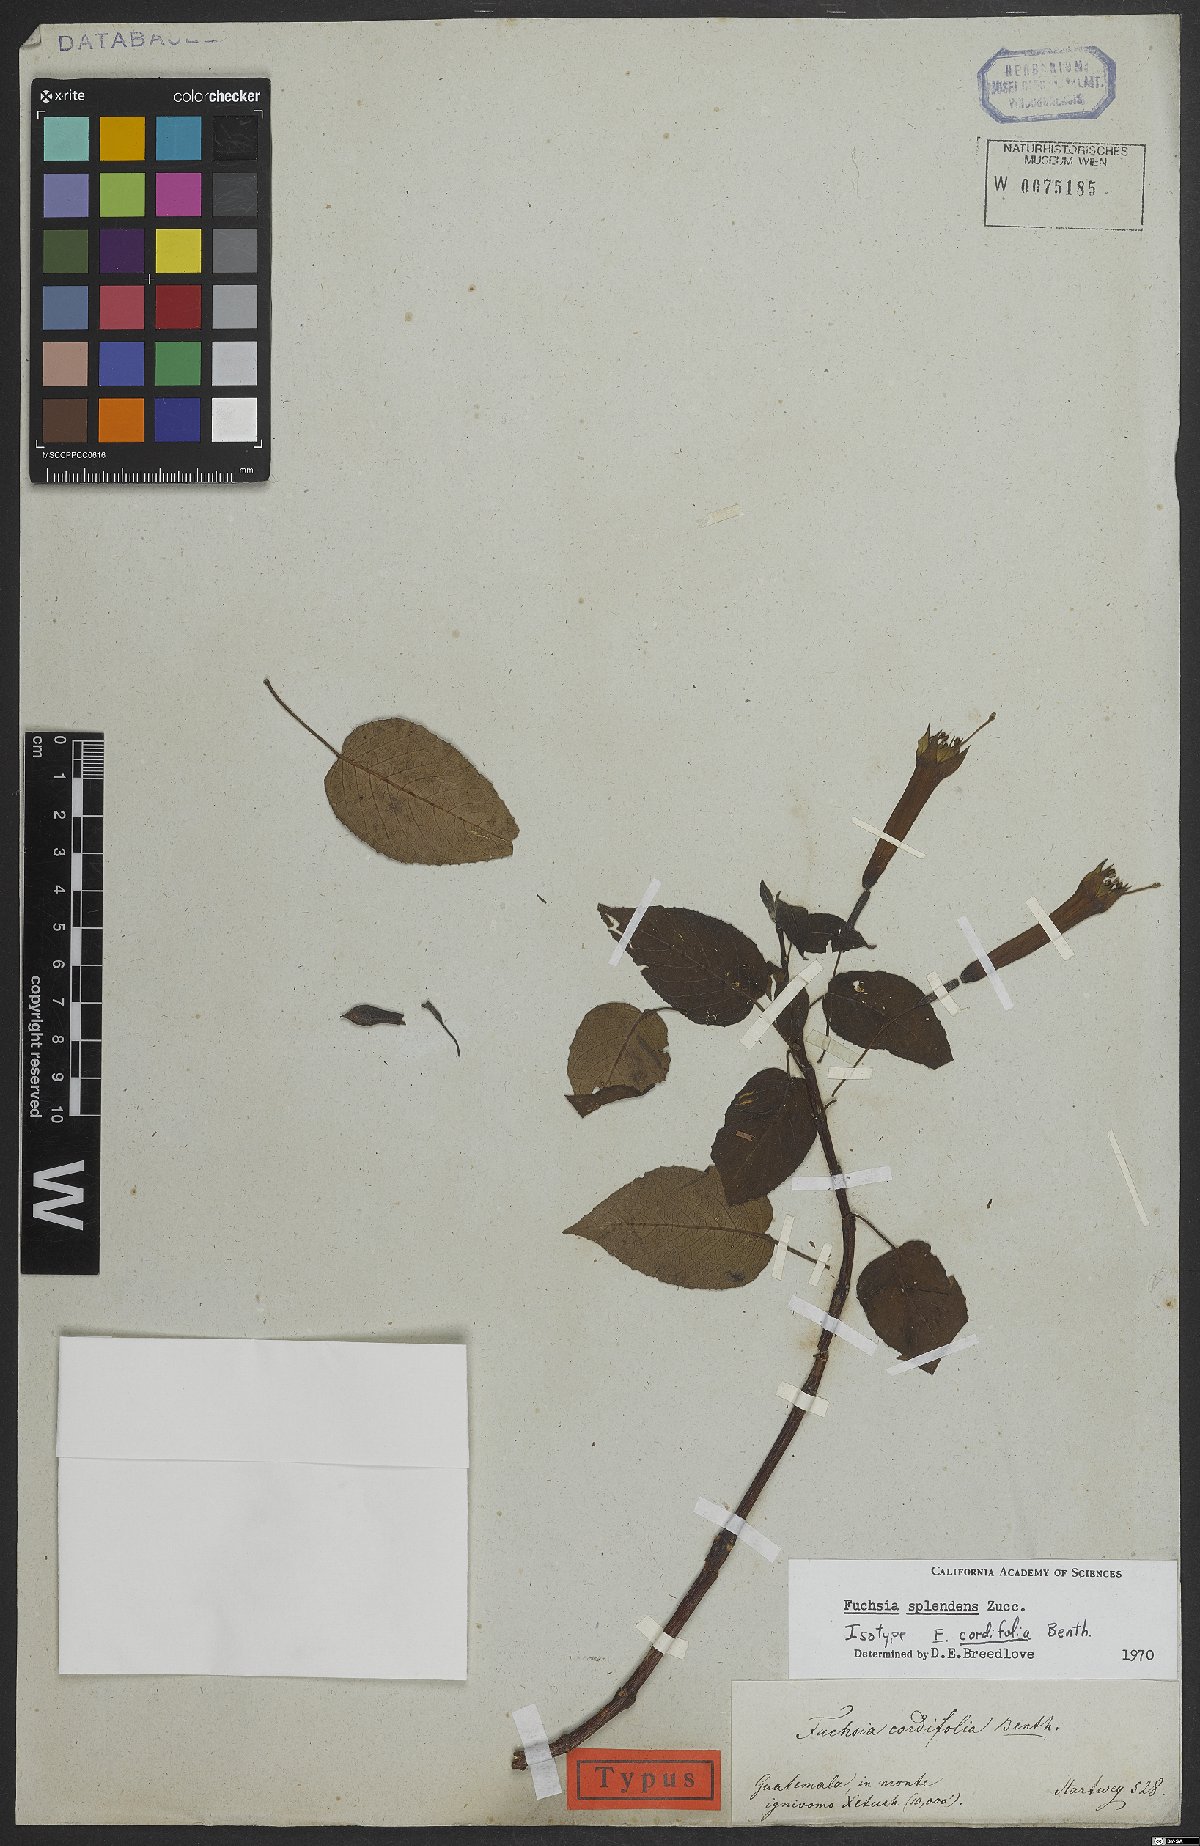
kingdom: Plantae
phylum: Tracheophyta
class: Magnoliopsida
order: Myrtales
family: Onagraceae
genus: Fuchsia
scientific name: Fuchsia splendens
